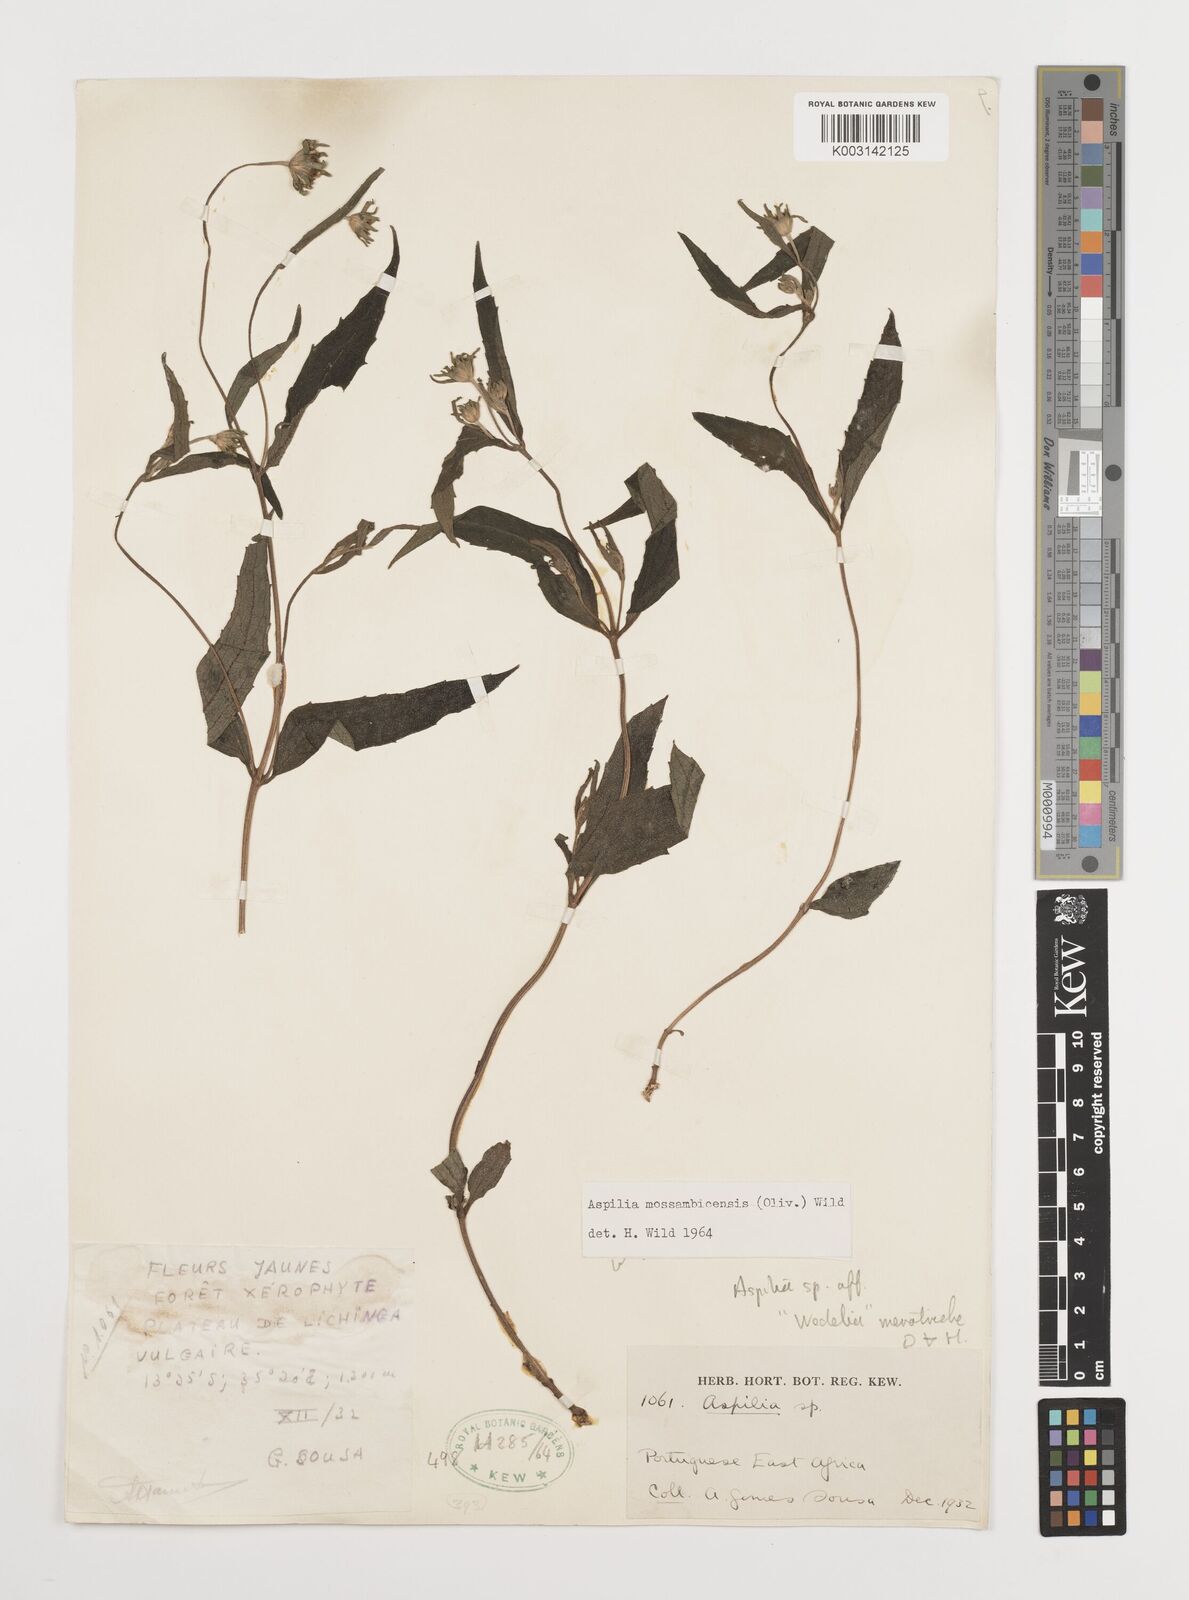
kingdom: Plantae
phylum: Tracheophyta
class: Magnoliopsida
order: Asterales
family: Asteraceae
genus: Aspilia
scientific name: Aspilia mossambicensis
